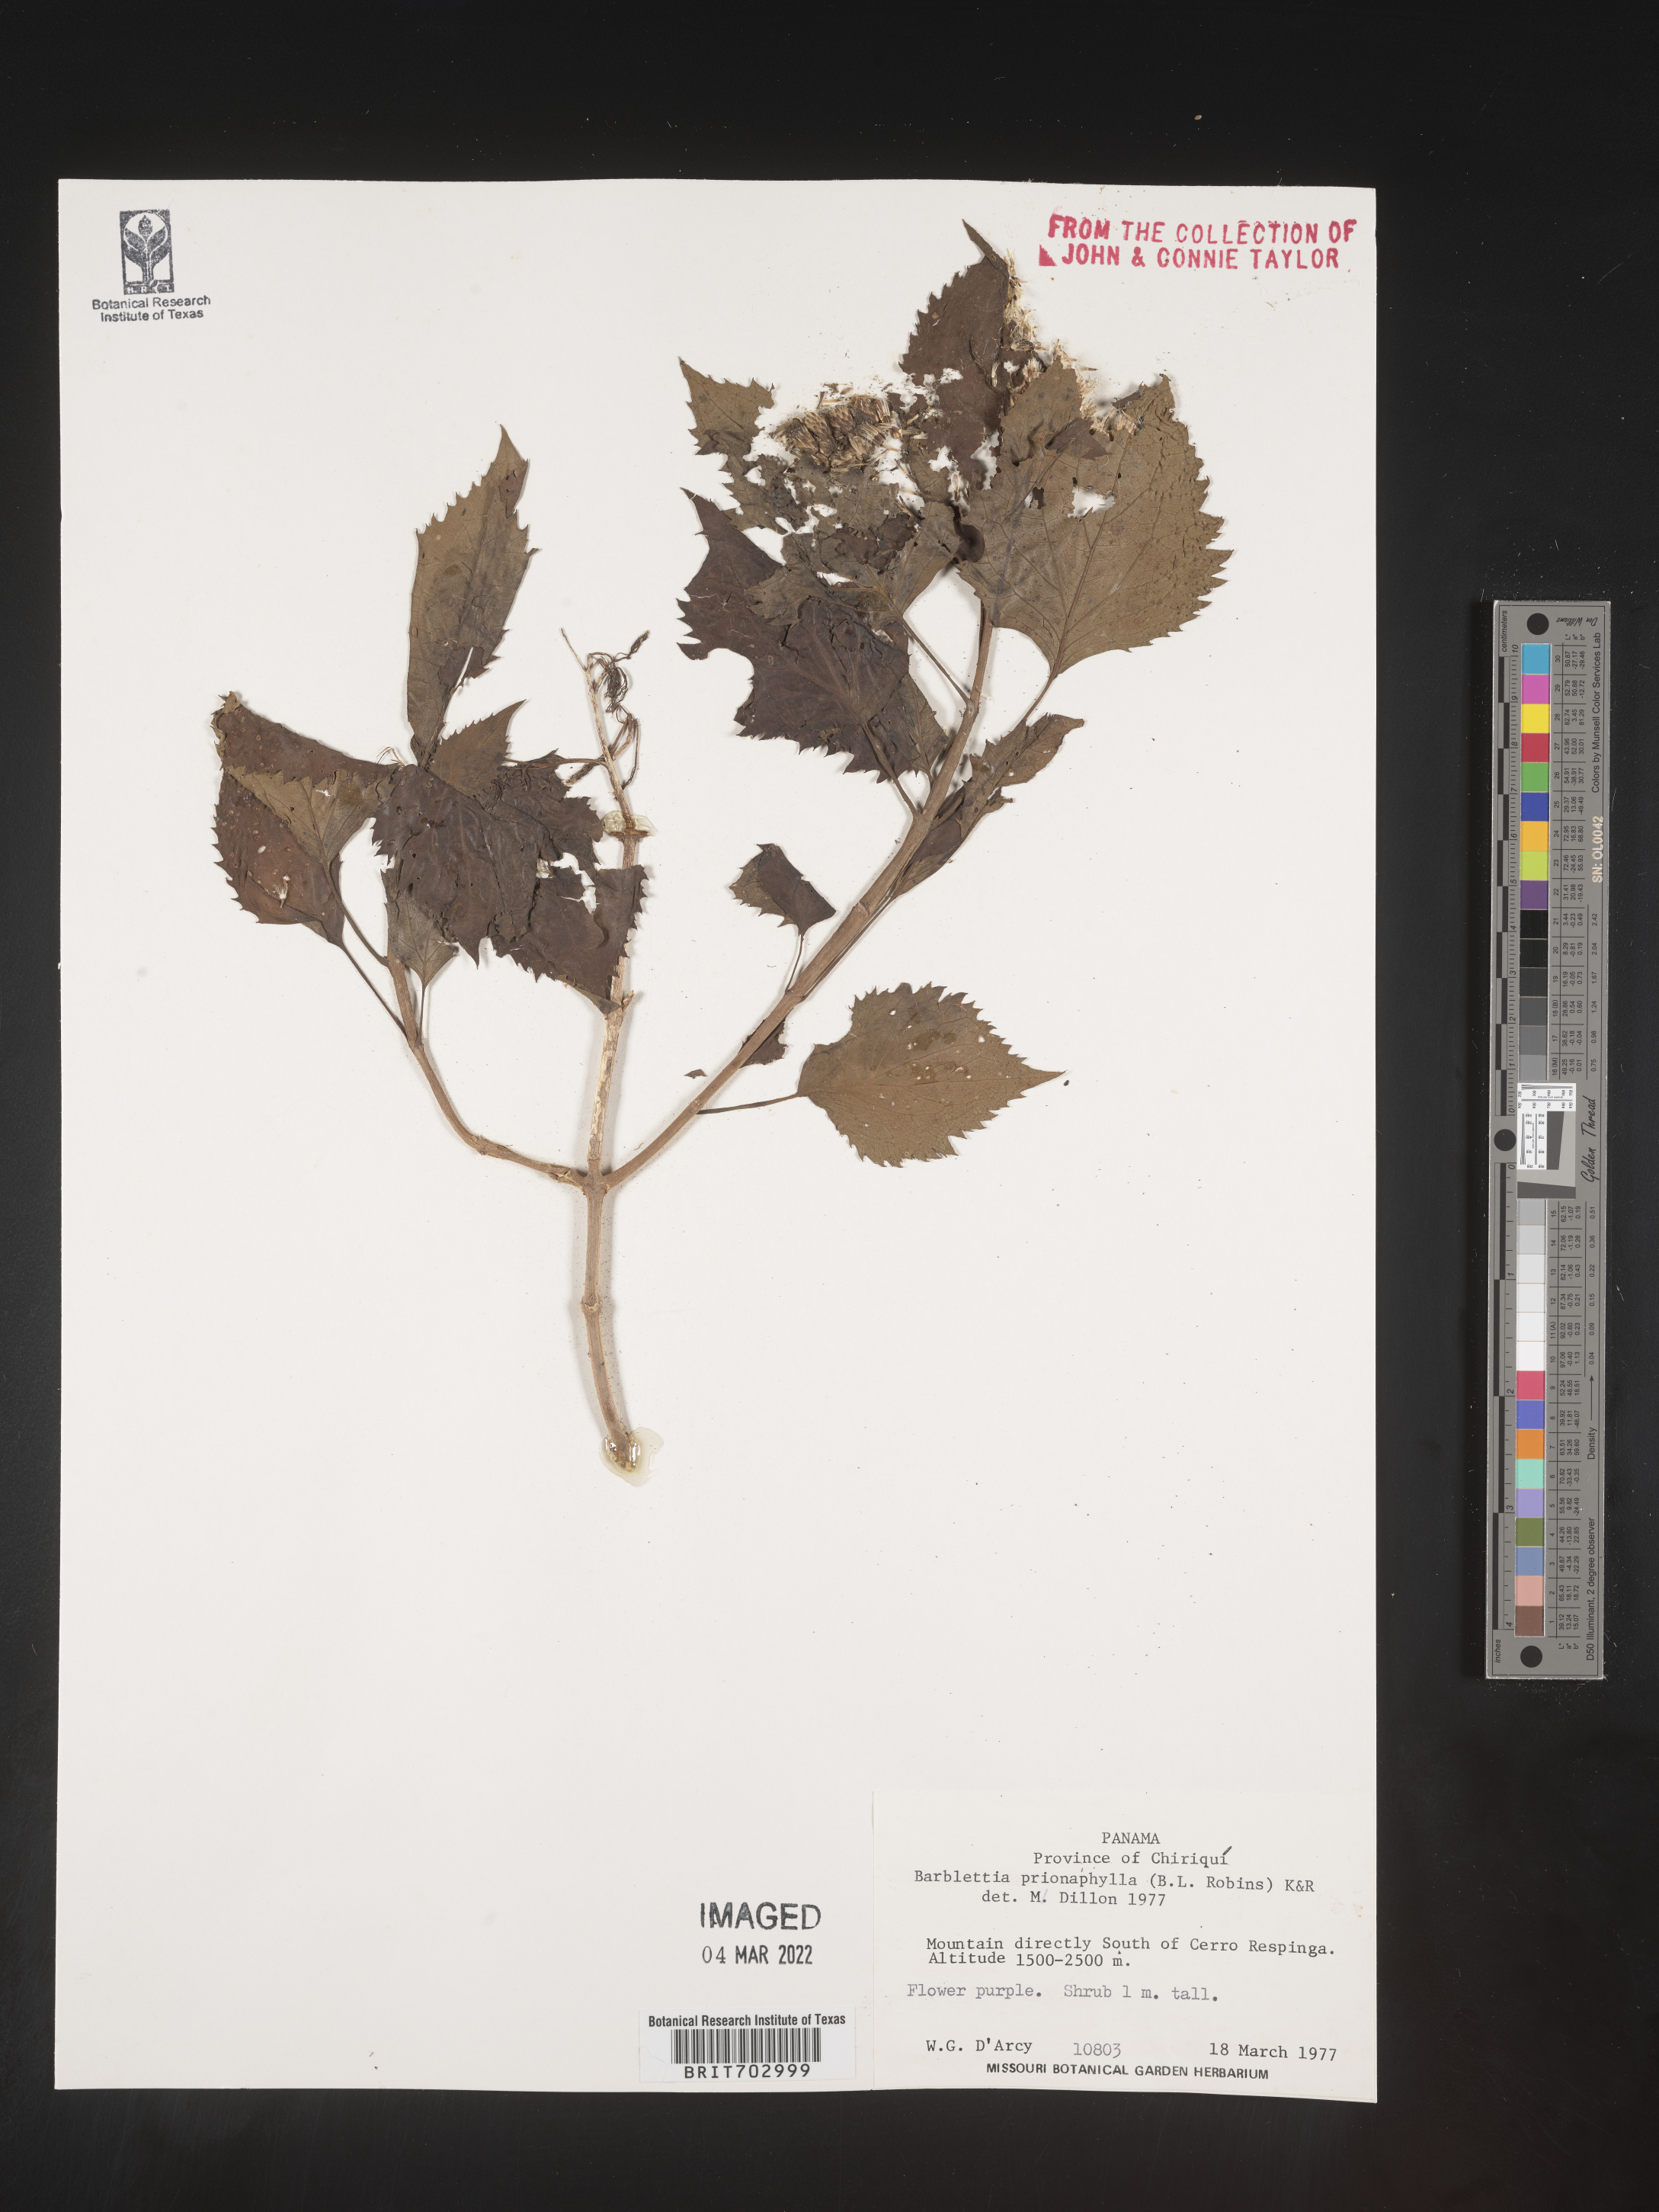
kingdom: Plantae
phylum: Tracheophyta
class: Magnoliopsida
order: Asterales
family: Asteraceae
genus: Eupatorium
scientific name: Eupatorium
